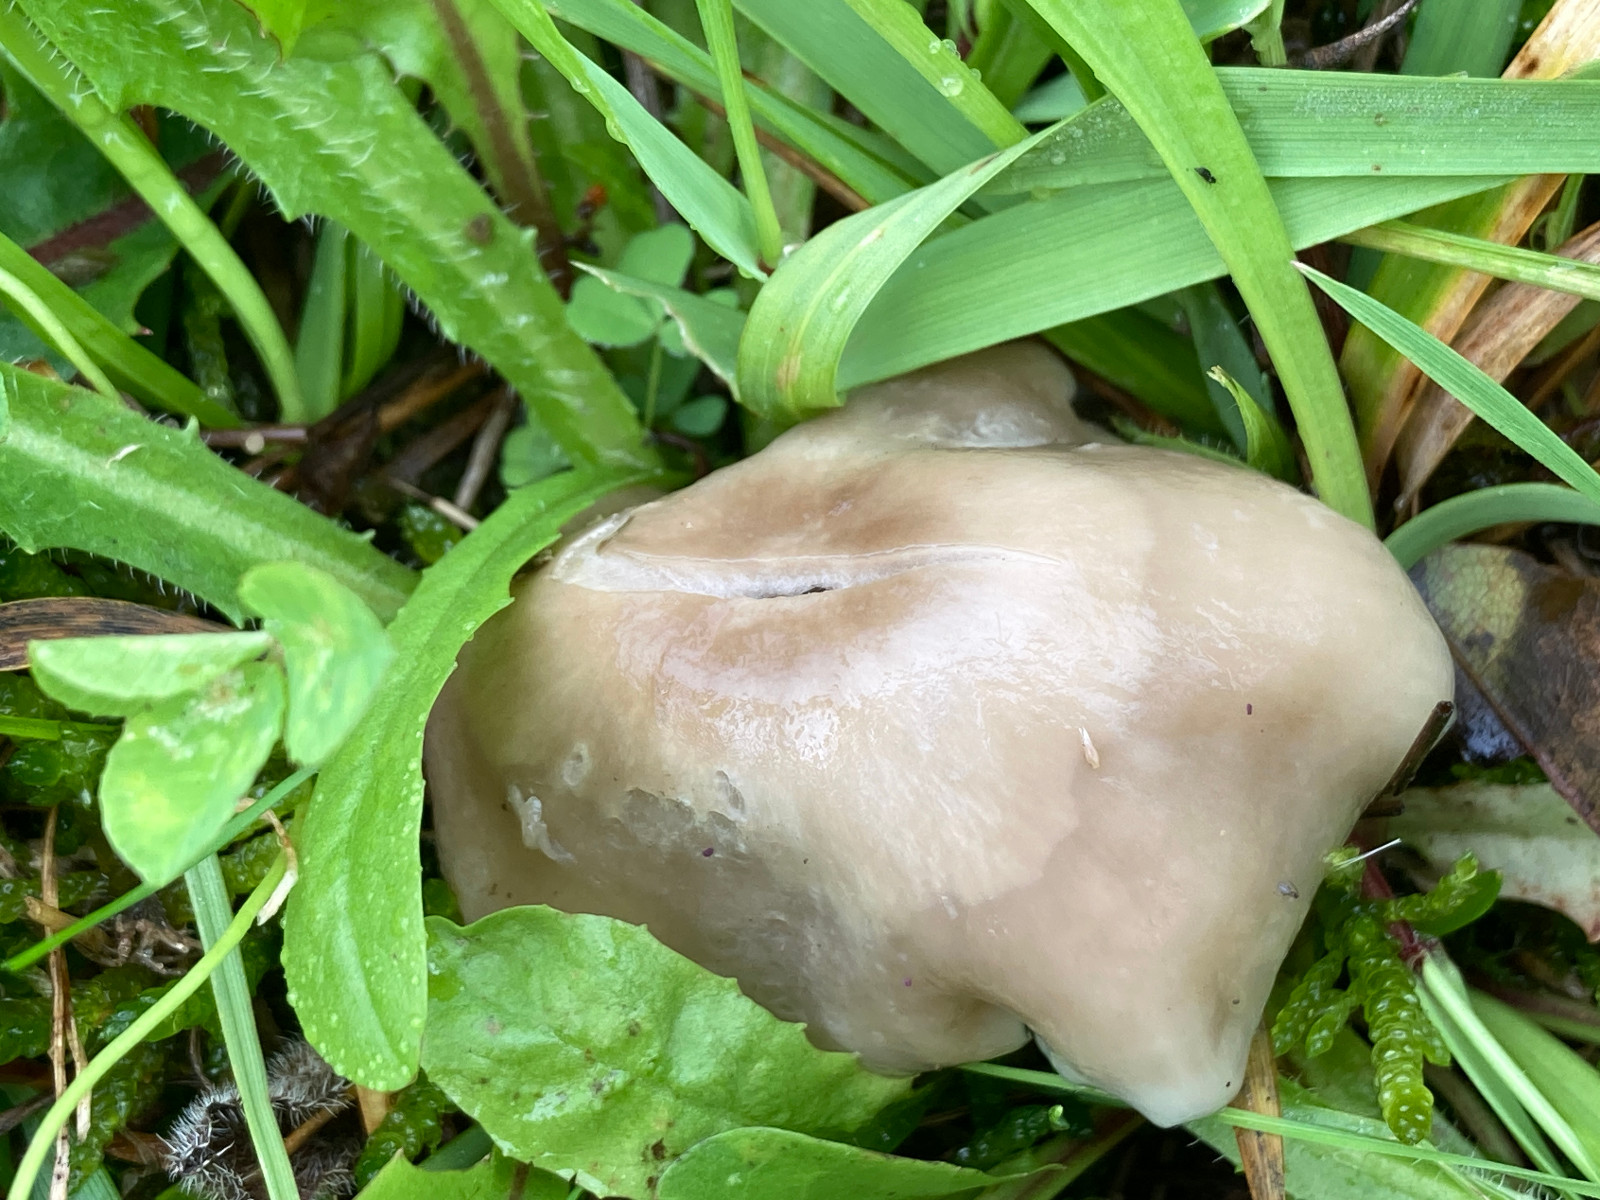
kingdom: Fungi
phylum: Basidiomycota
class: Agaricomycetes
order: Agaricales
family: Hygrophoraceae
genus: Gliophorus
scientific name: Gliophorus irrigatus
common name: slimet vokshat
